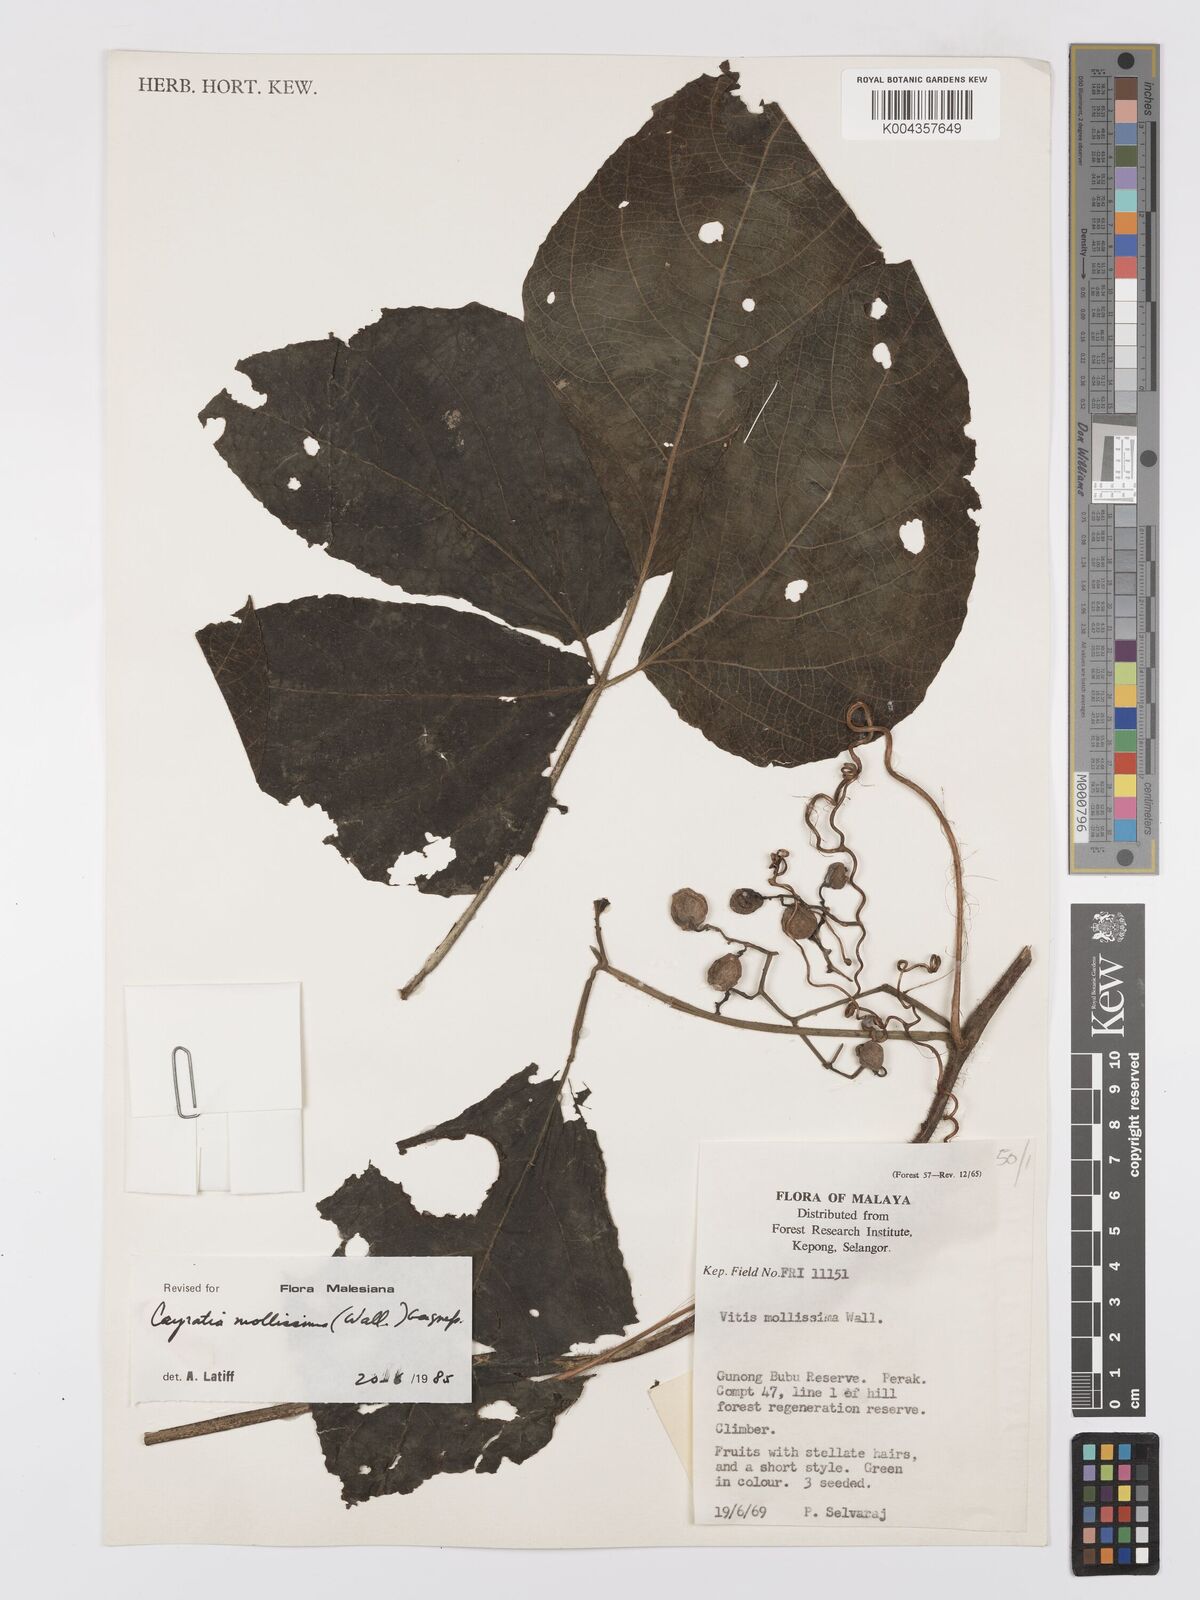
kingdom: Plantae
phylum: Tracheophyta
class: Magnoliopsida
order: Vitales
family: Vitaceae
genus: Cayratia
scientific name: Cayratia mollissima
